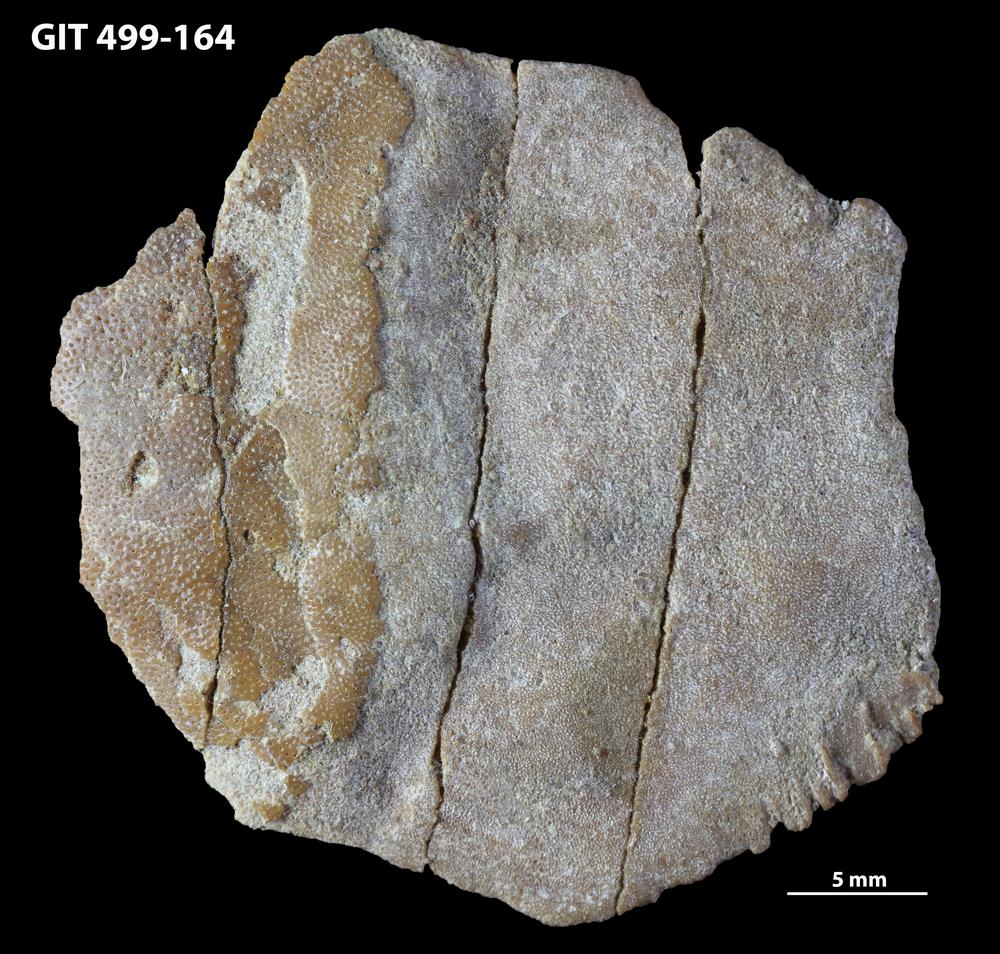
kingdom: Animalia
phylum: Chordata
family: Holoptychiidae
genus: Glyptolepis
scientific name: Glyptolepis
